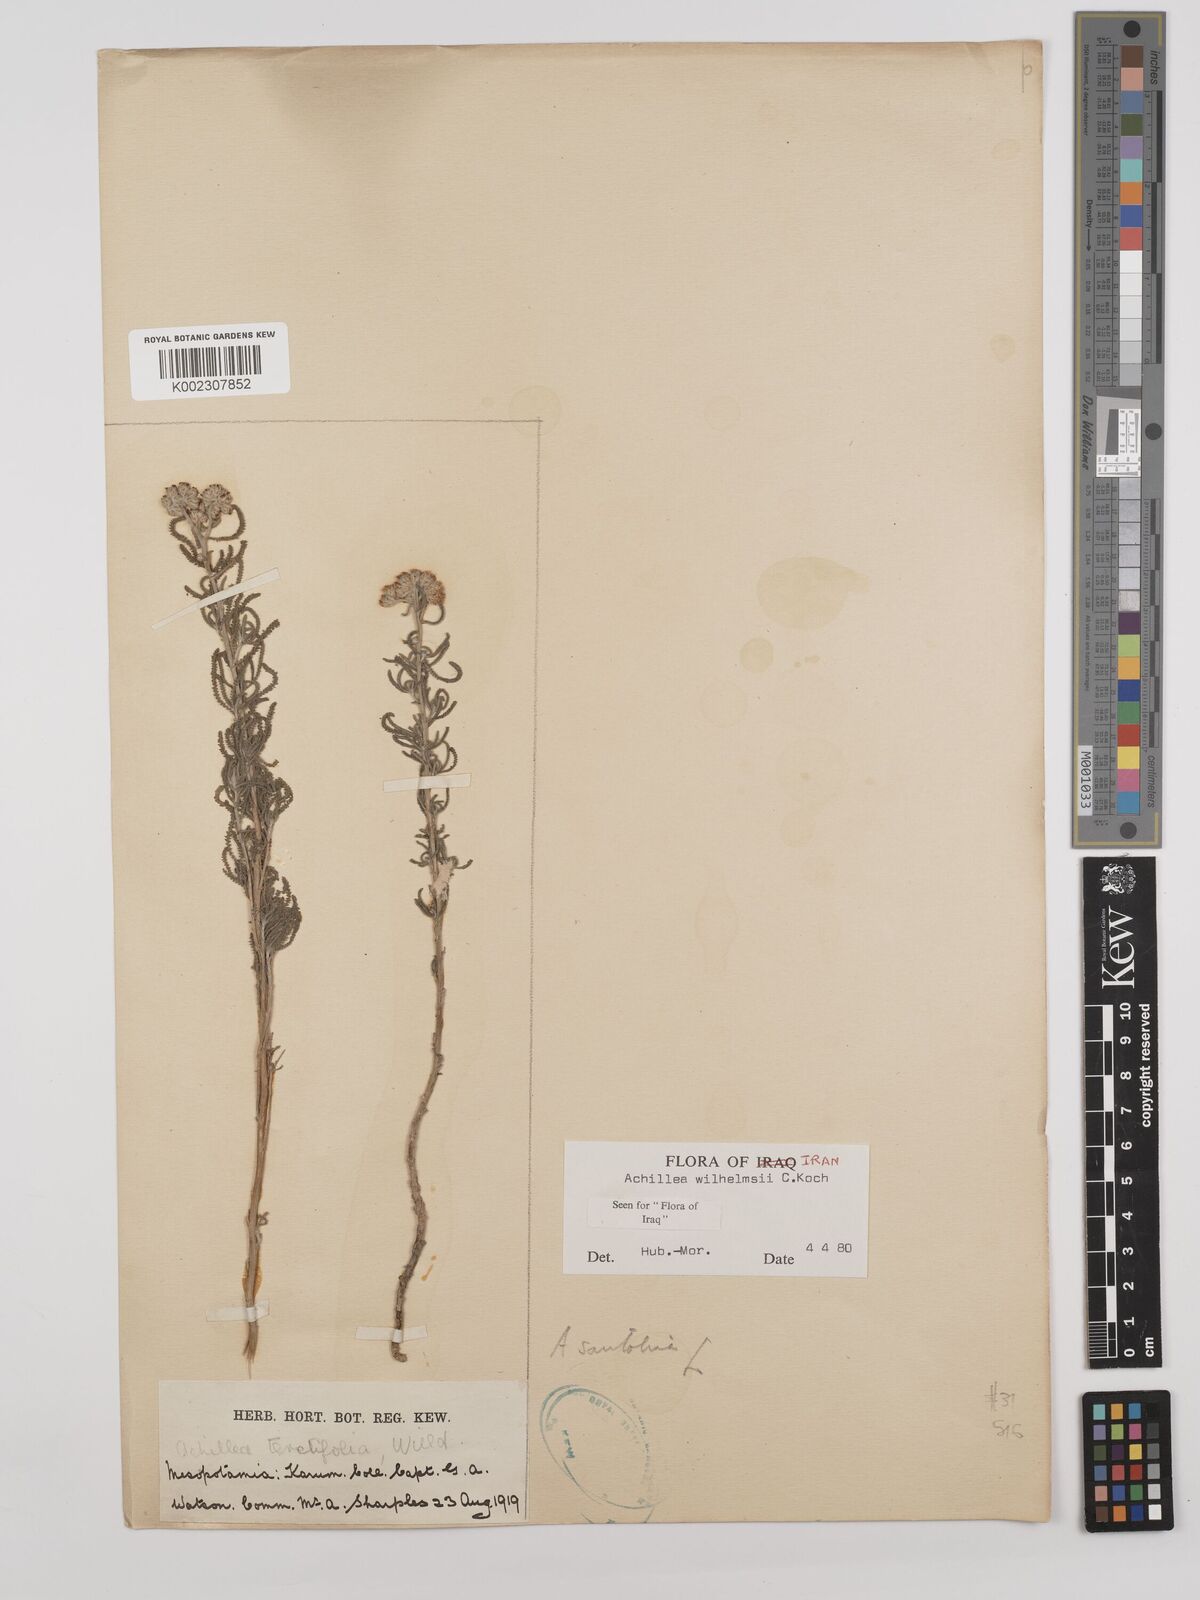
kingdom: Plantae
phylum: Tracheophyta
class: Magnoliopsida
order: Asterales
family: Asteraceae
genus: Achillea
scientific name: Achillea wilhelmsii
